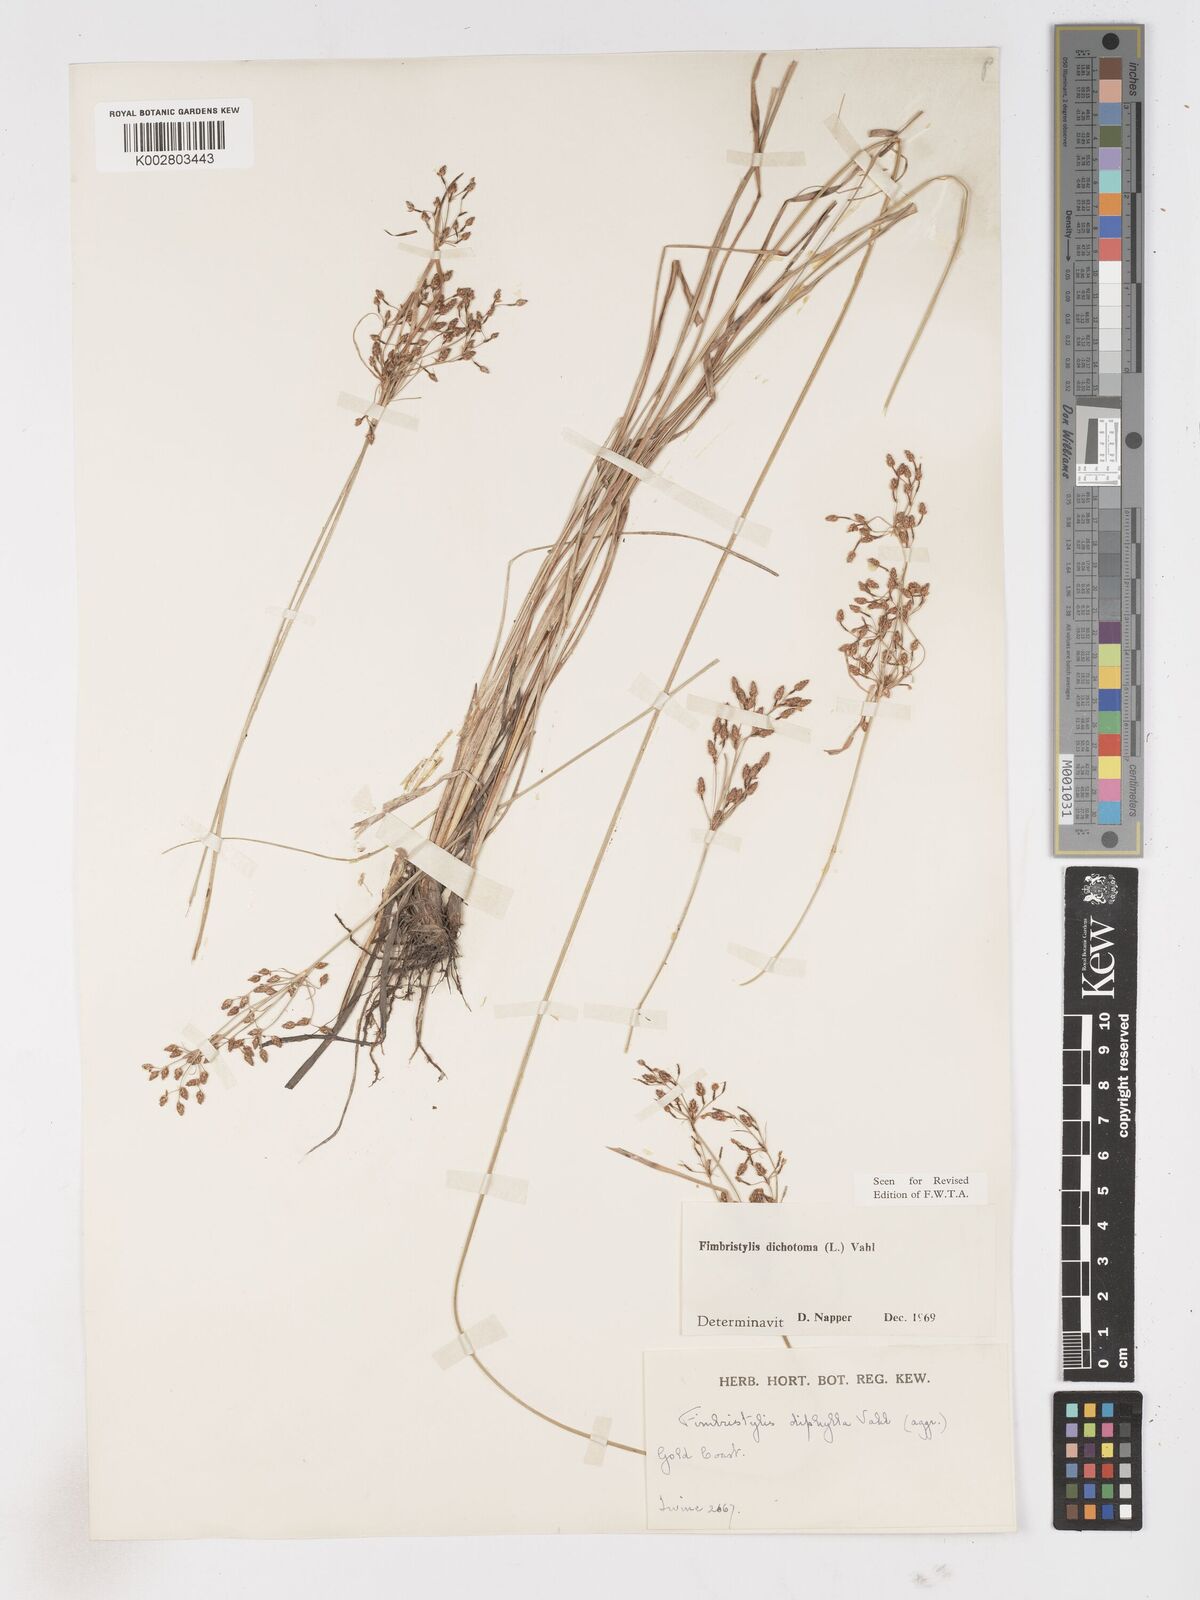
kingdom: Plantae
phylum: Tracheophyta
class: Liliopsida
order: Poales
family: Cyperaceae
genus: Fimbristylis
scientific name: Fimbristylis dichotoma
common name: Forked fimbry
